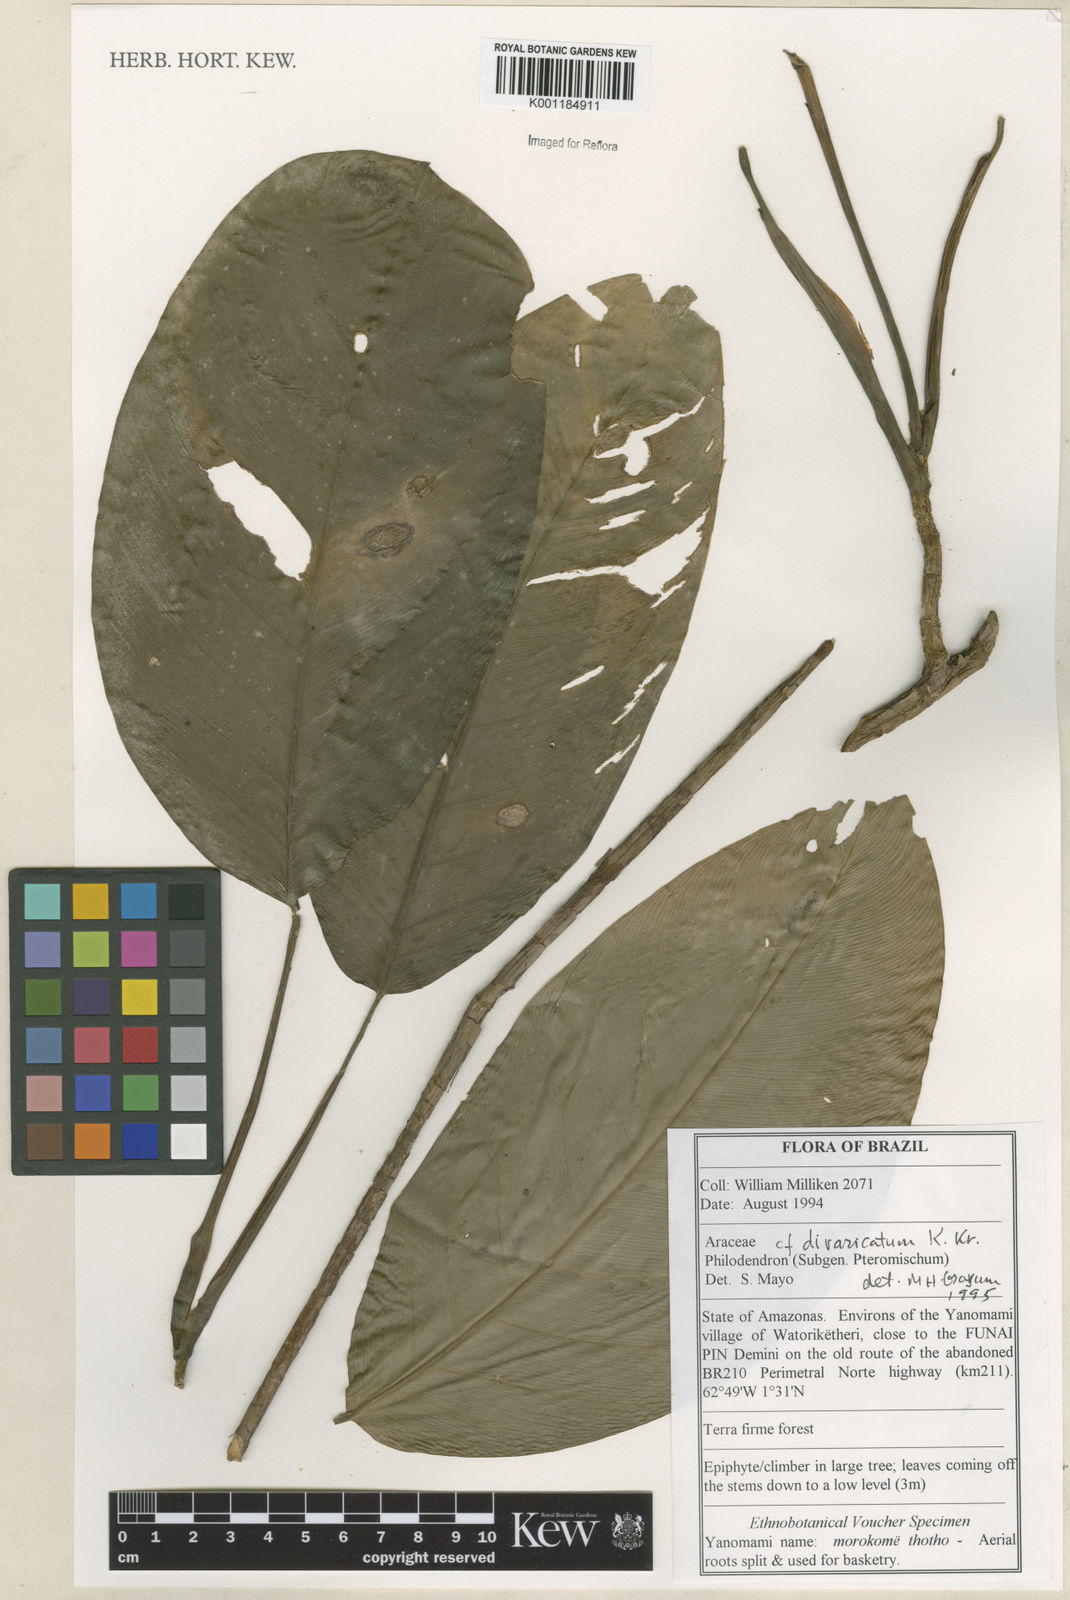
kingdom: Plantae
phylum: Tracheophyta
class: Liliopsida
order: Alismatales
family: Araceae
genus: Philodendron
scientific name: Philodendron divaricatum
